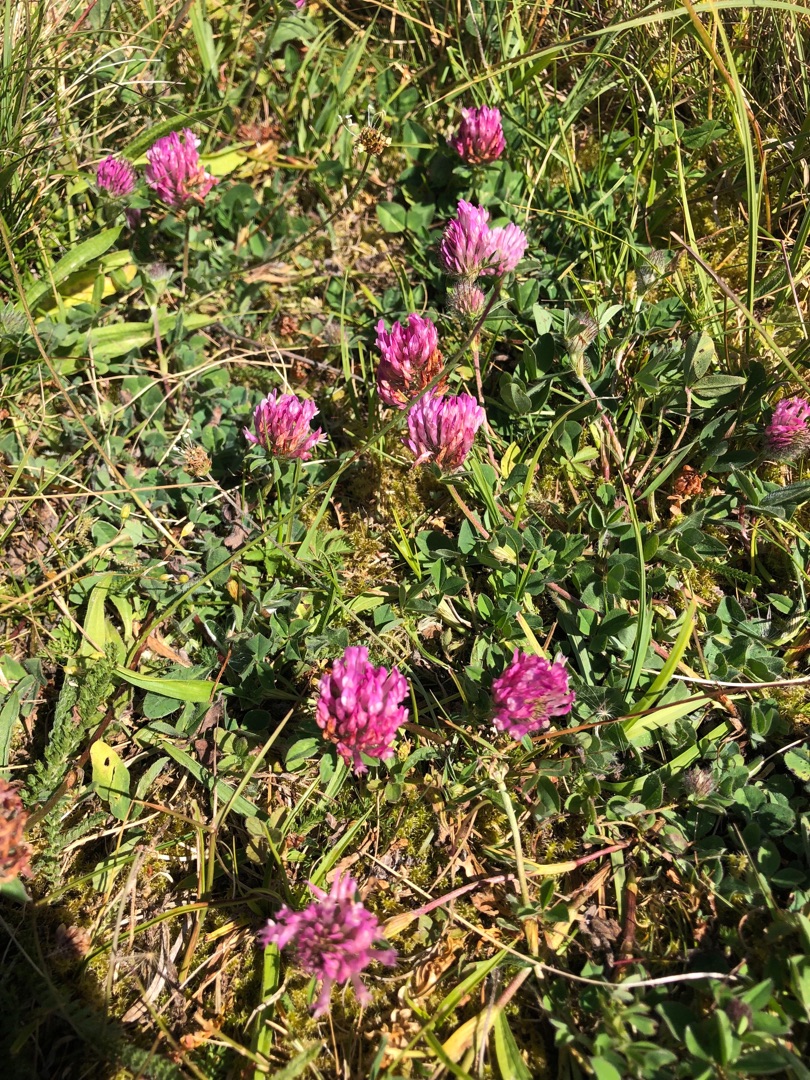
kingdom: Plantae
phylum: Tracheophyta
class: Magnoliopsida
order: Fabales
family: Fabaceae
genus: Trifolium
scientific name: Trifolium pratense
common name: Rød-kløver
